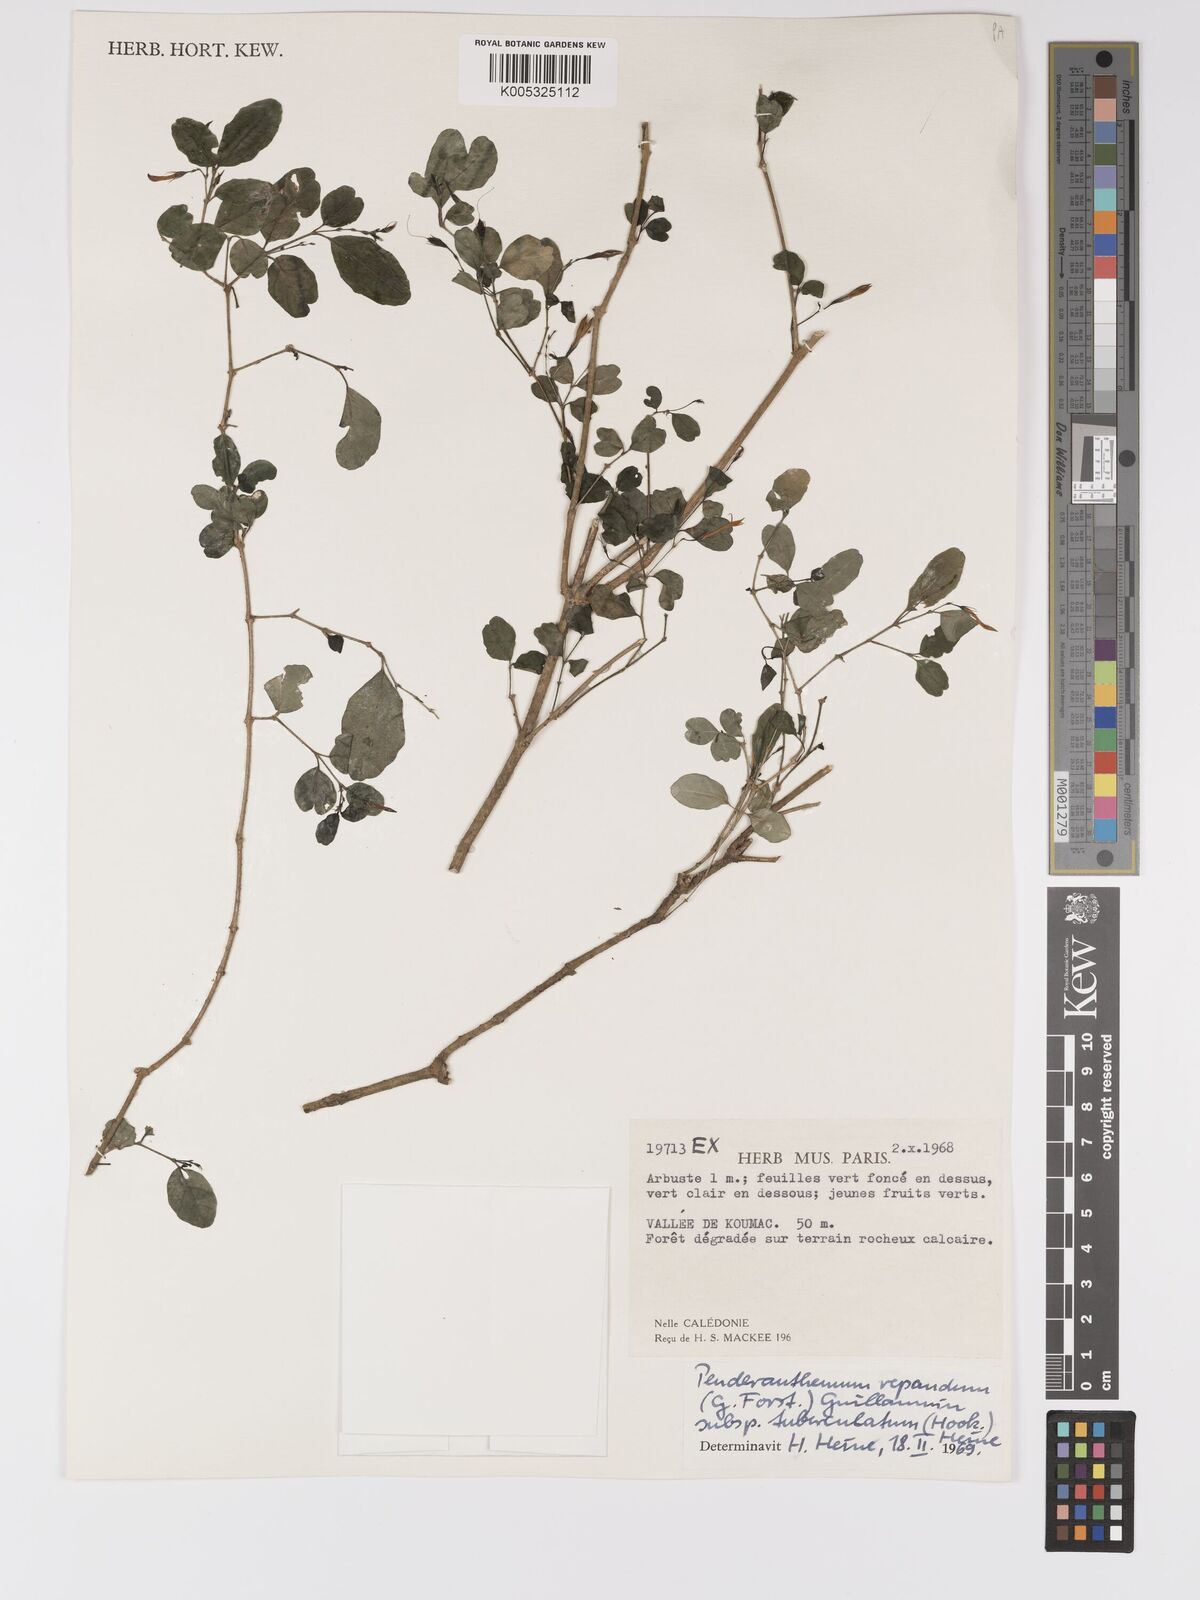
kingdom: Plantae
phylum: Tracheophyta
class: Magnoliopsida
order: Lamiales
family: Acanthaceae
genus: Pseuderanthemum
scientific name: Pseuderanthemum repandum
